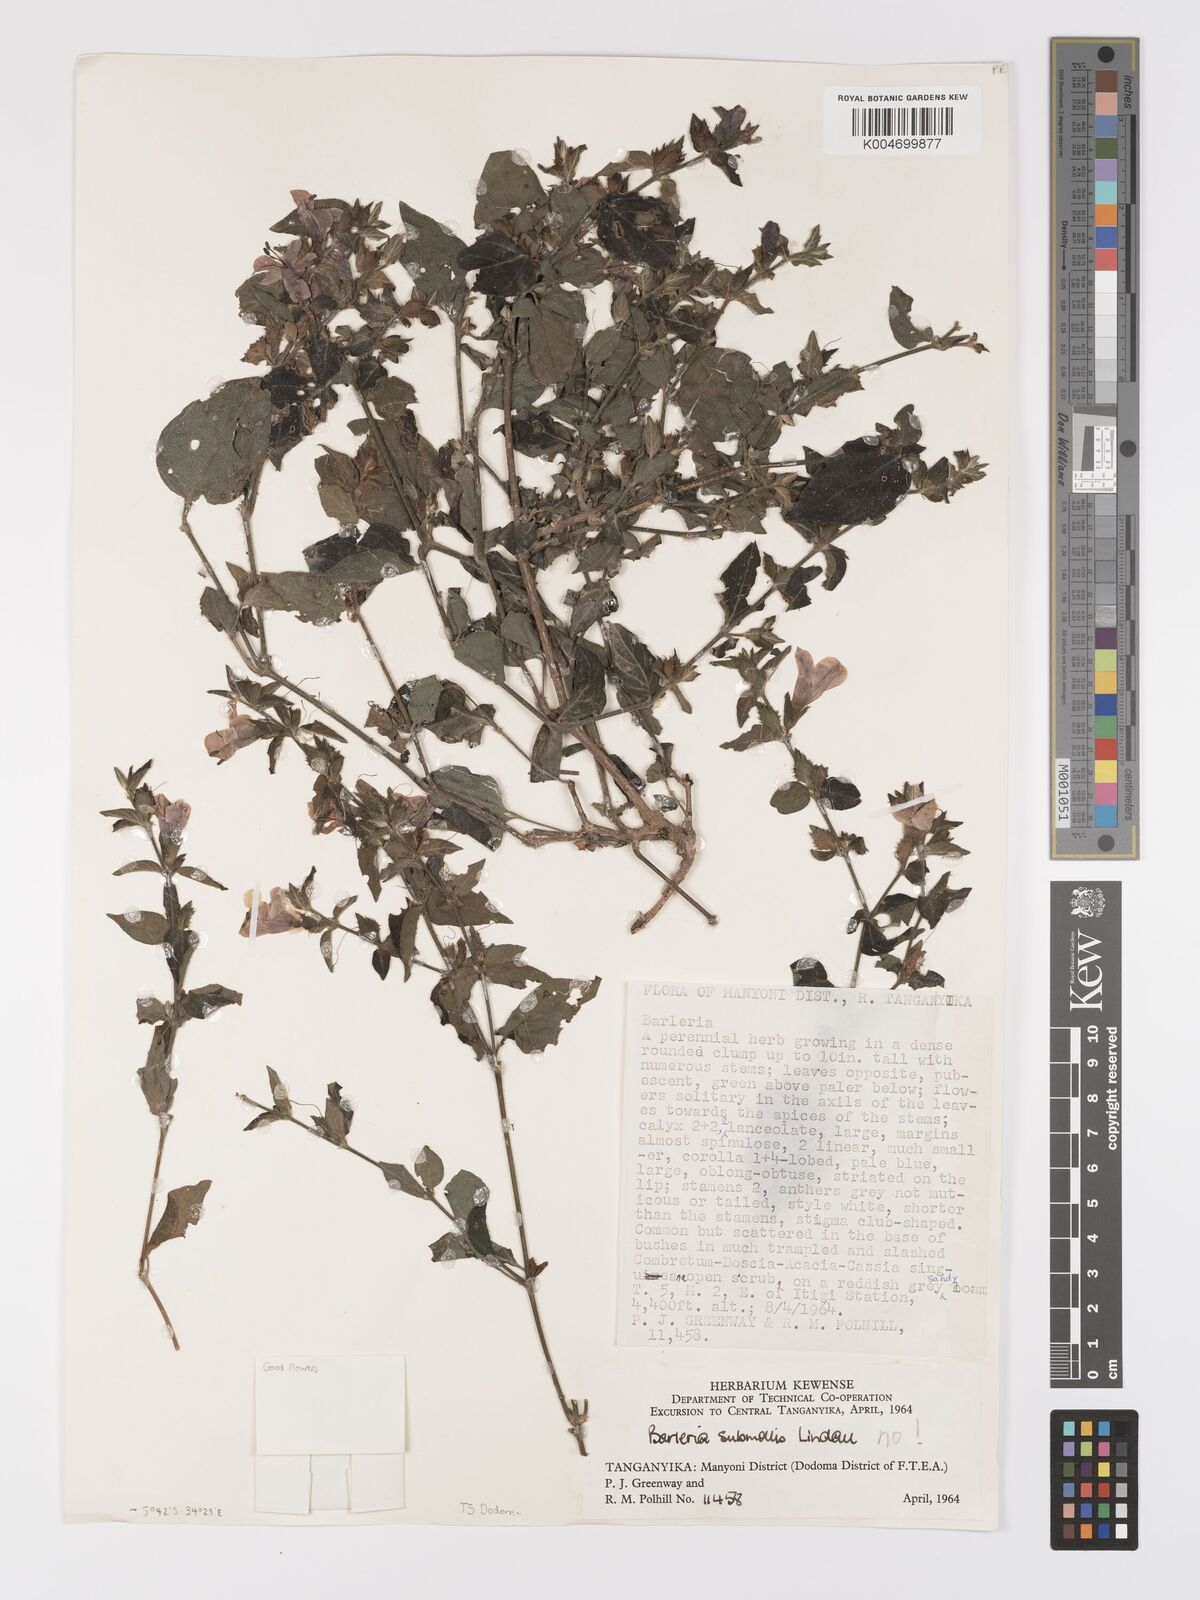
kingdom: Plantae
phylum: Tracheophyta
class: Magnoliopsida
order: Lamiales
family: Acanthaceae
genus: Barleria
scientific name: Barleria ventricosa
